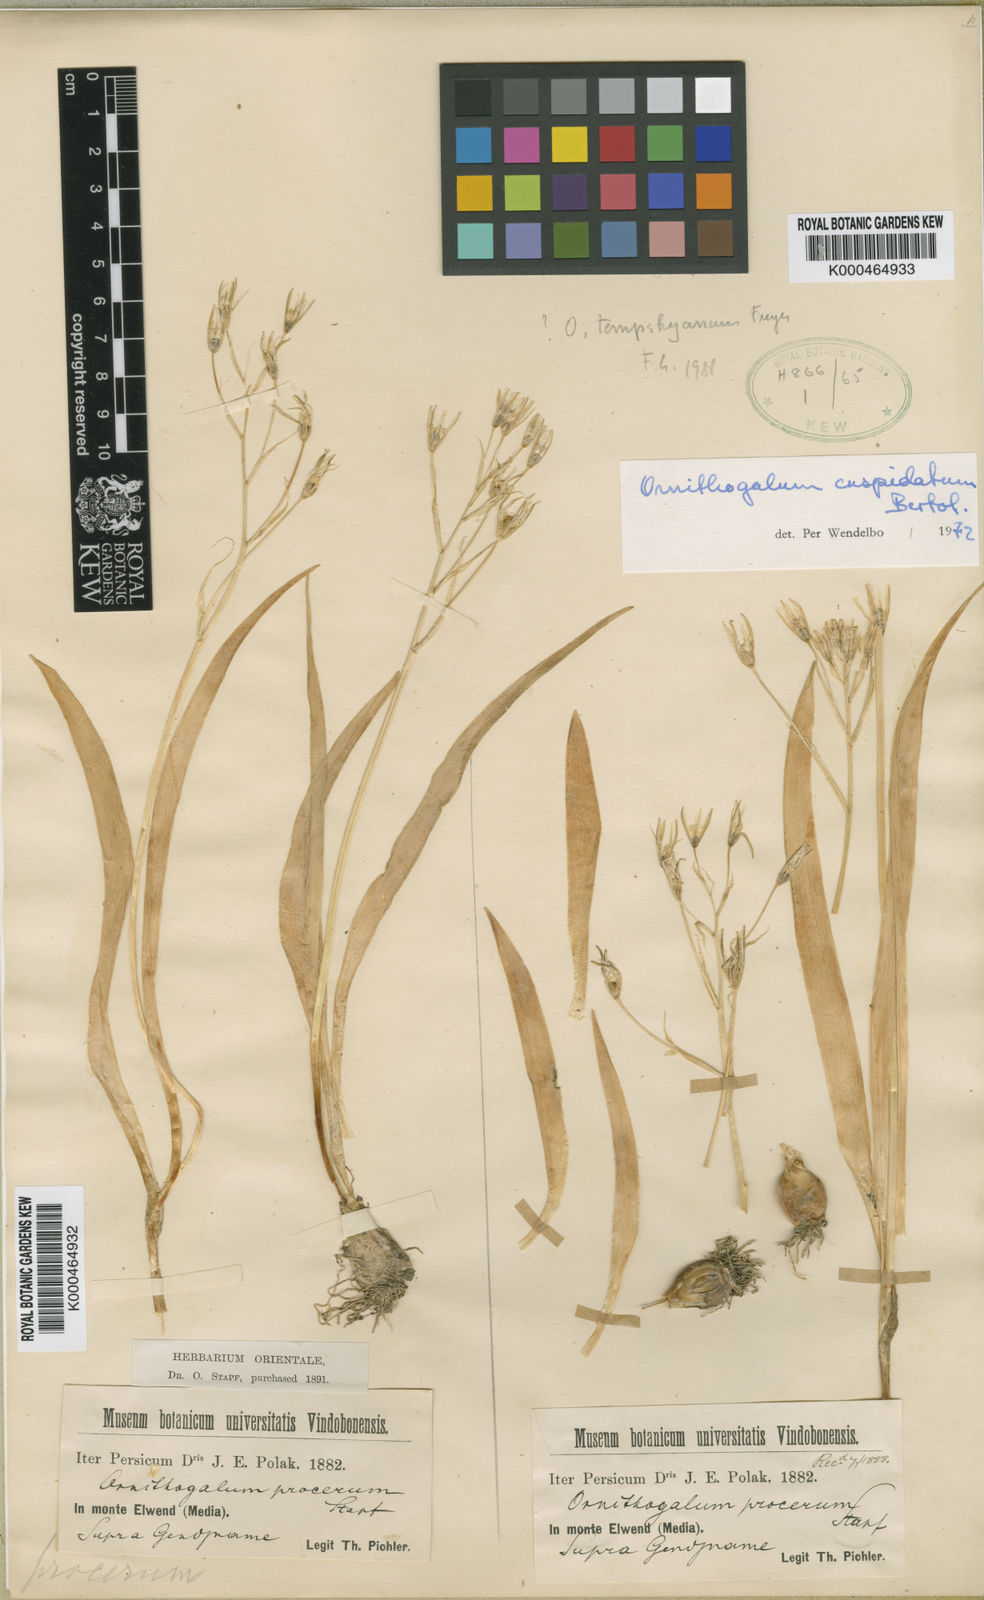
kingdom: Plantae
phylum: Tracheophyta
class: Liliopsida
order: Asparagales
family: Asparagaceae
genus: Ornithogalum
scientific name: Ornithogalum cuspidatum
